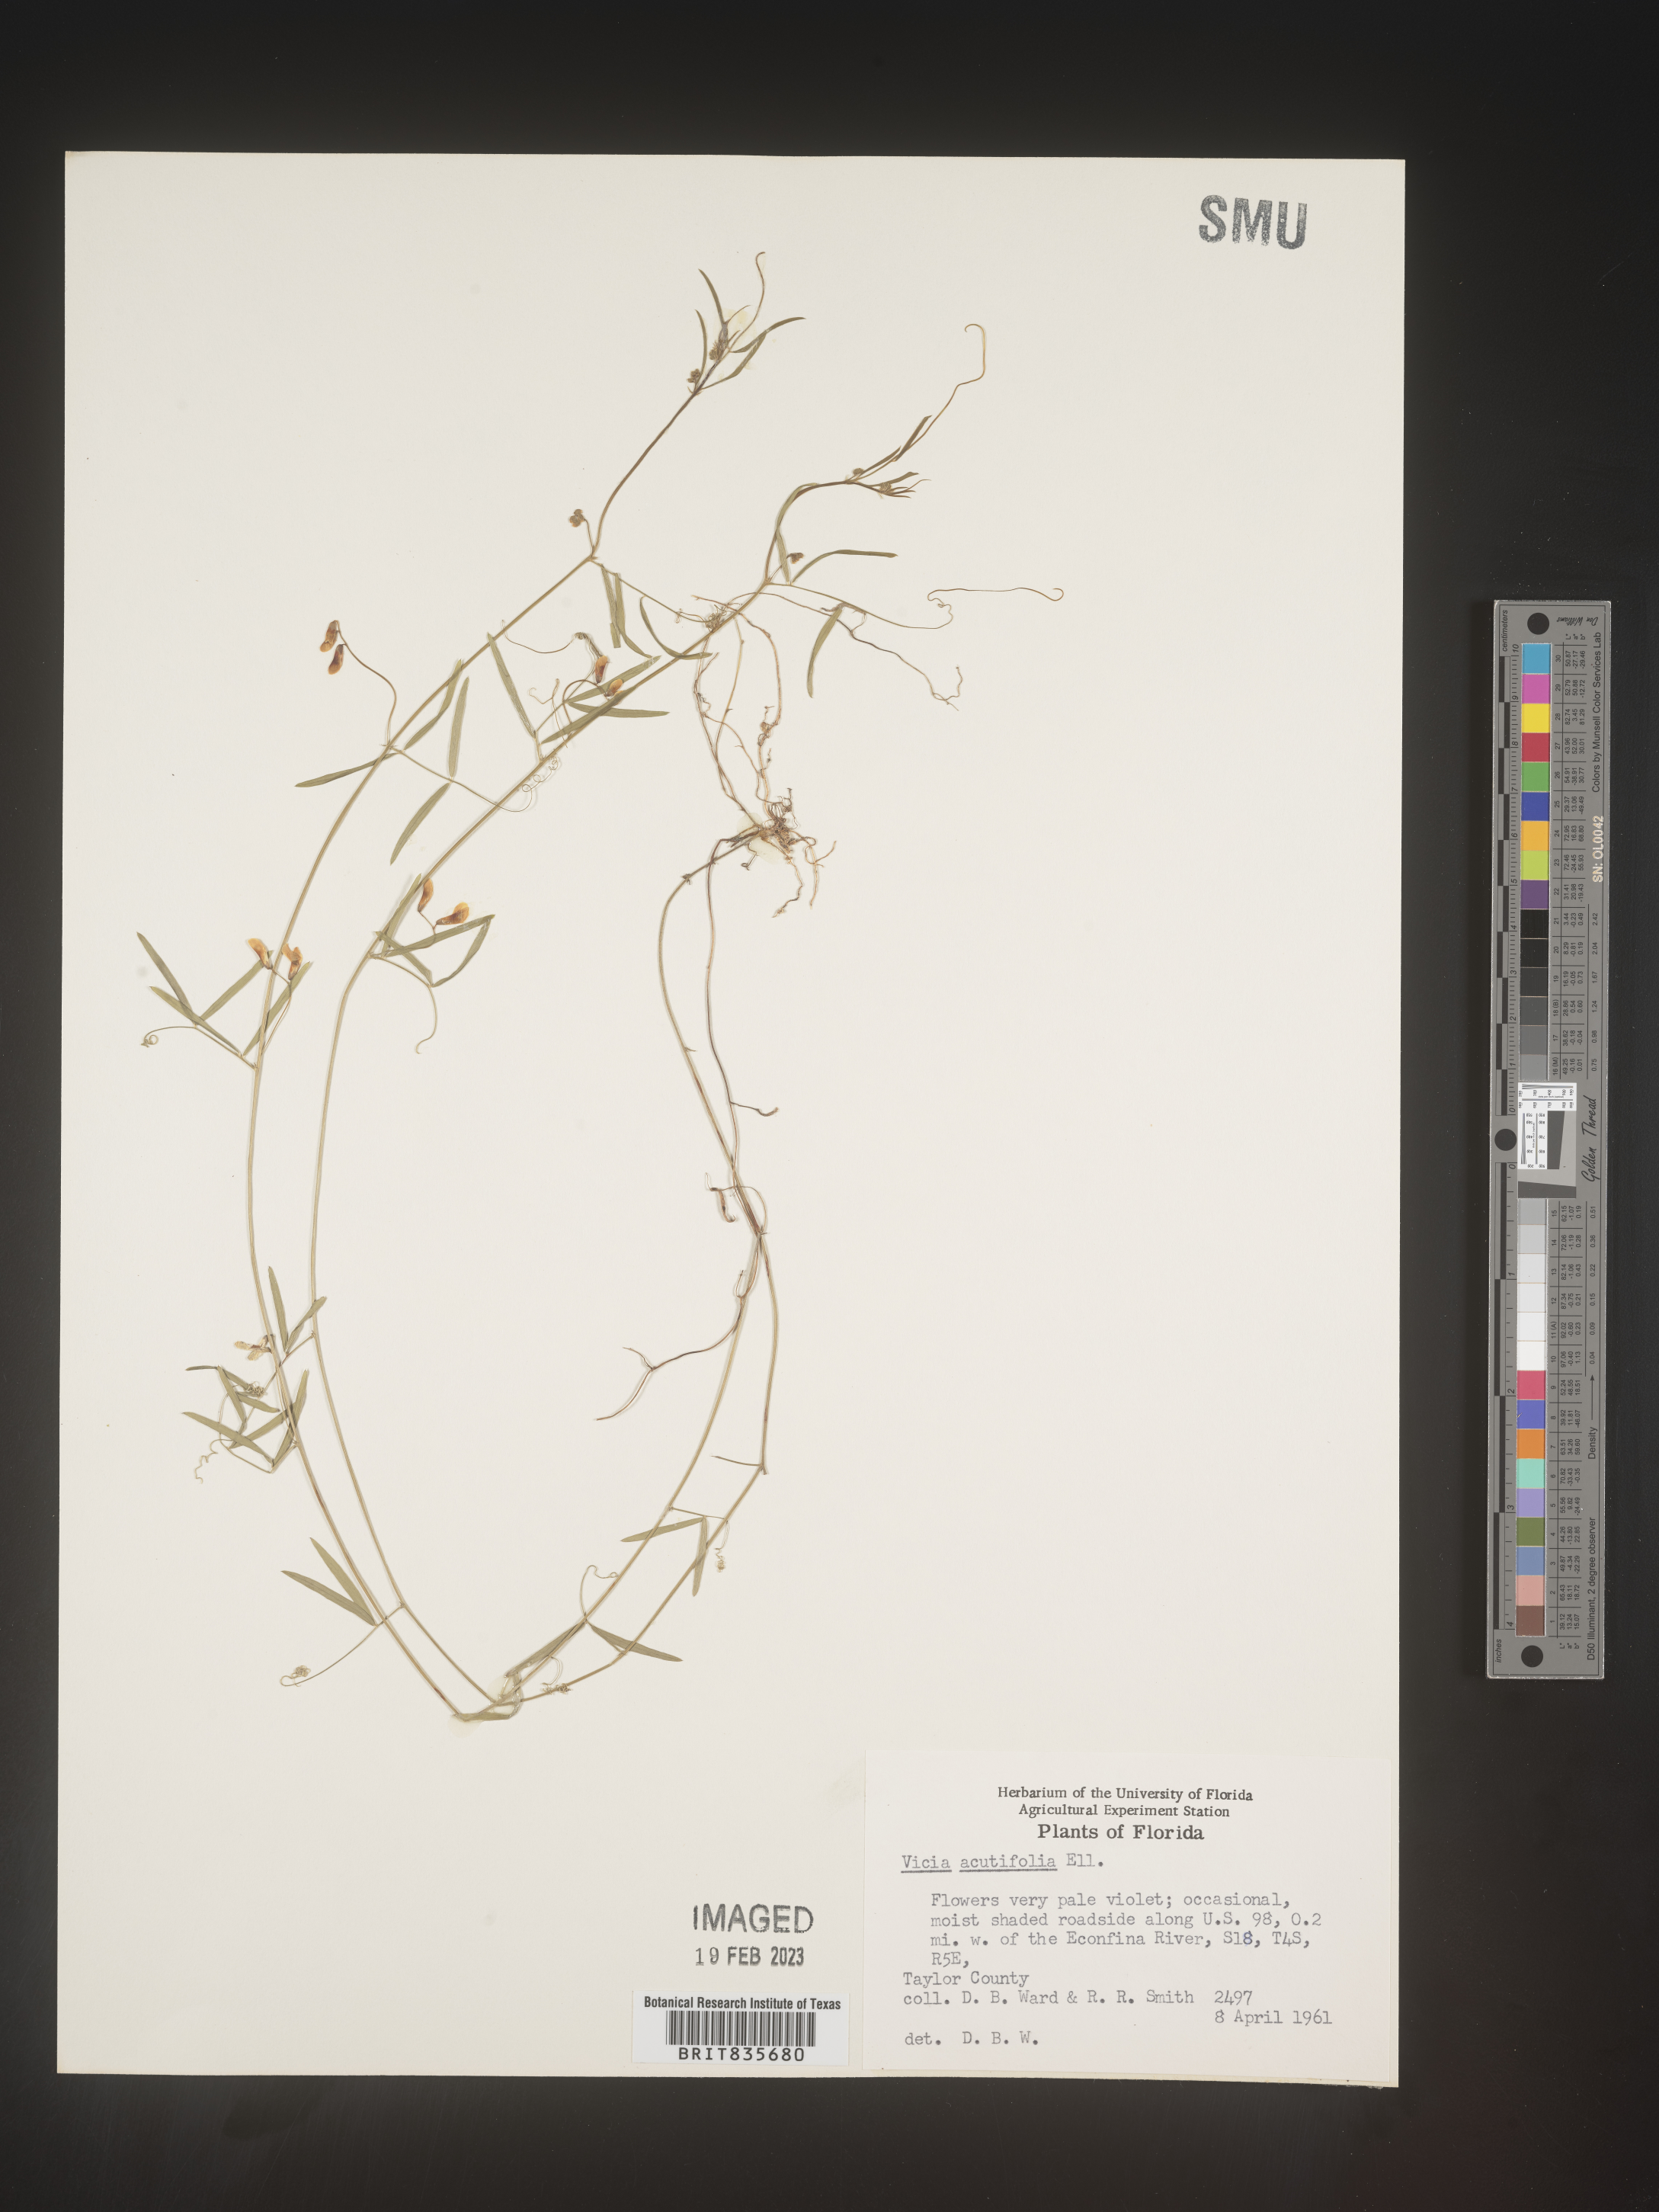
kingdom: Plantae
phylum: Tracheophyta
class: Magnoliopsida
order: Fabales
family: Fabaceae
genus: Vicia
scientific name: Vicia acutifolia
